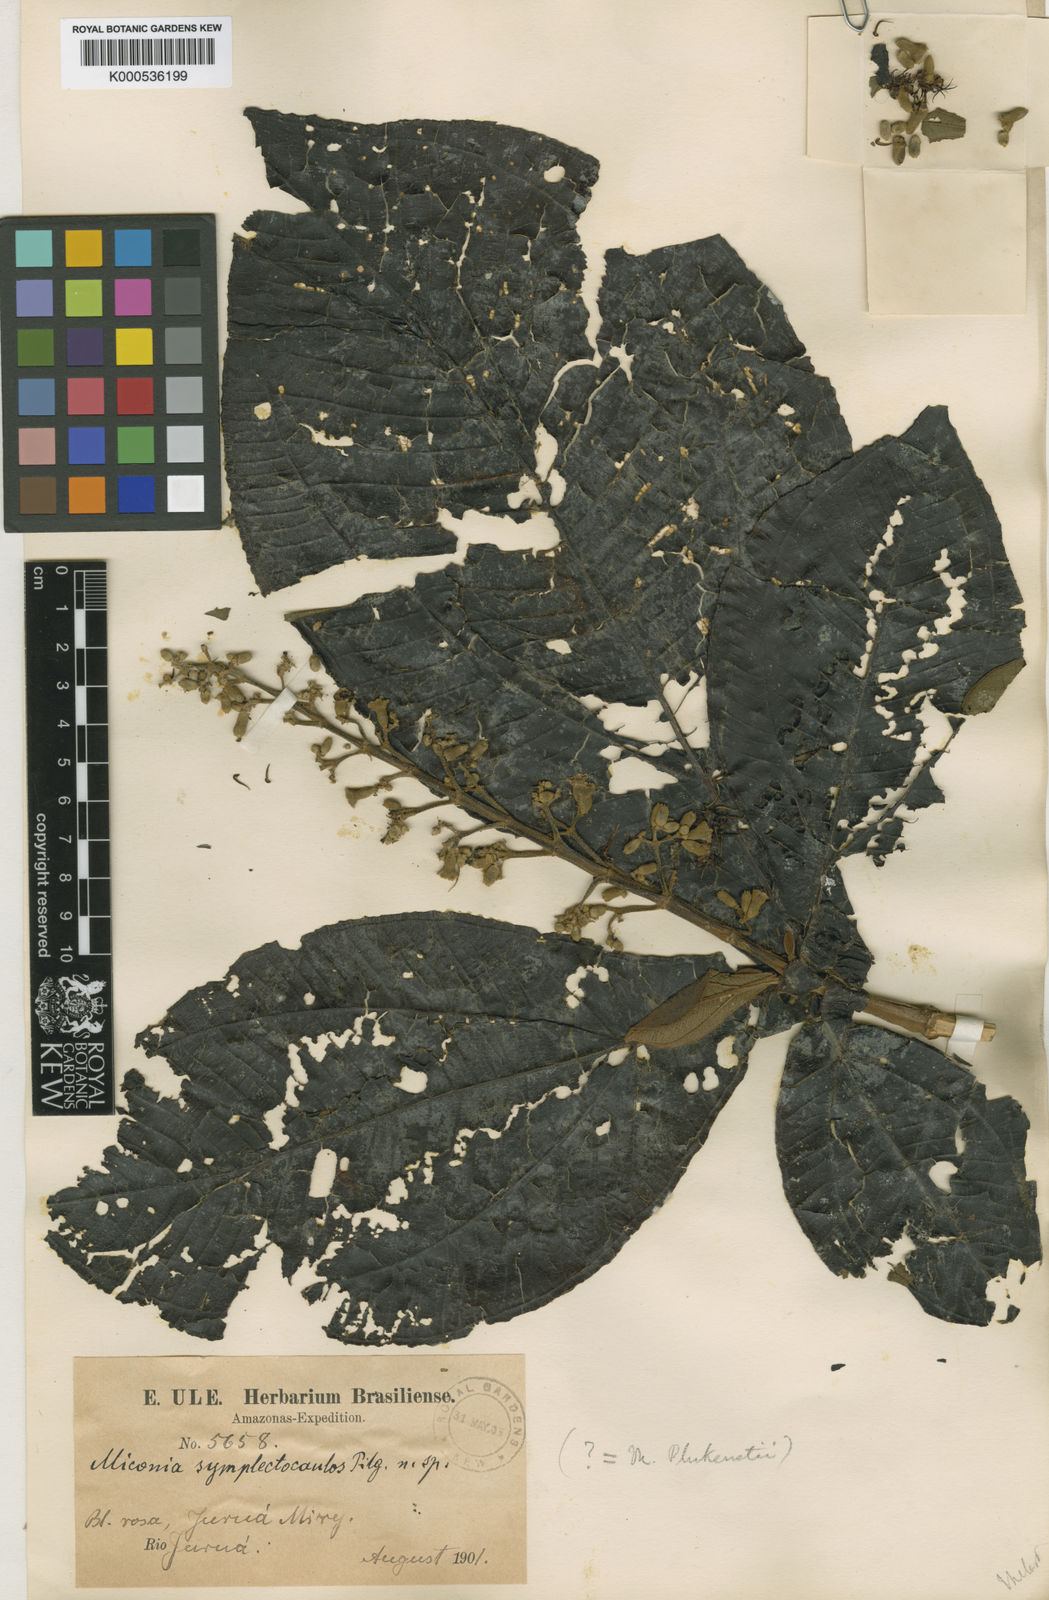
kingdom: Plantae
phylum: Tracheophyta
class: Magnoliopsida
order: Myrtales
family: Melastomataceae
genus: Miconia
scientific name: Miconia symplectocaulos
